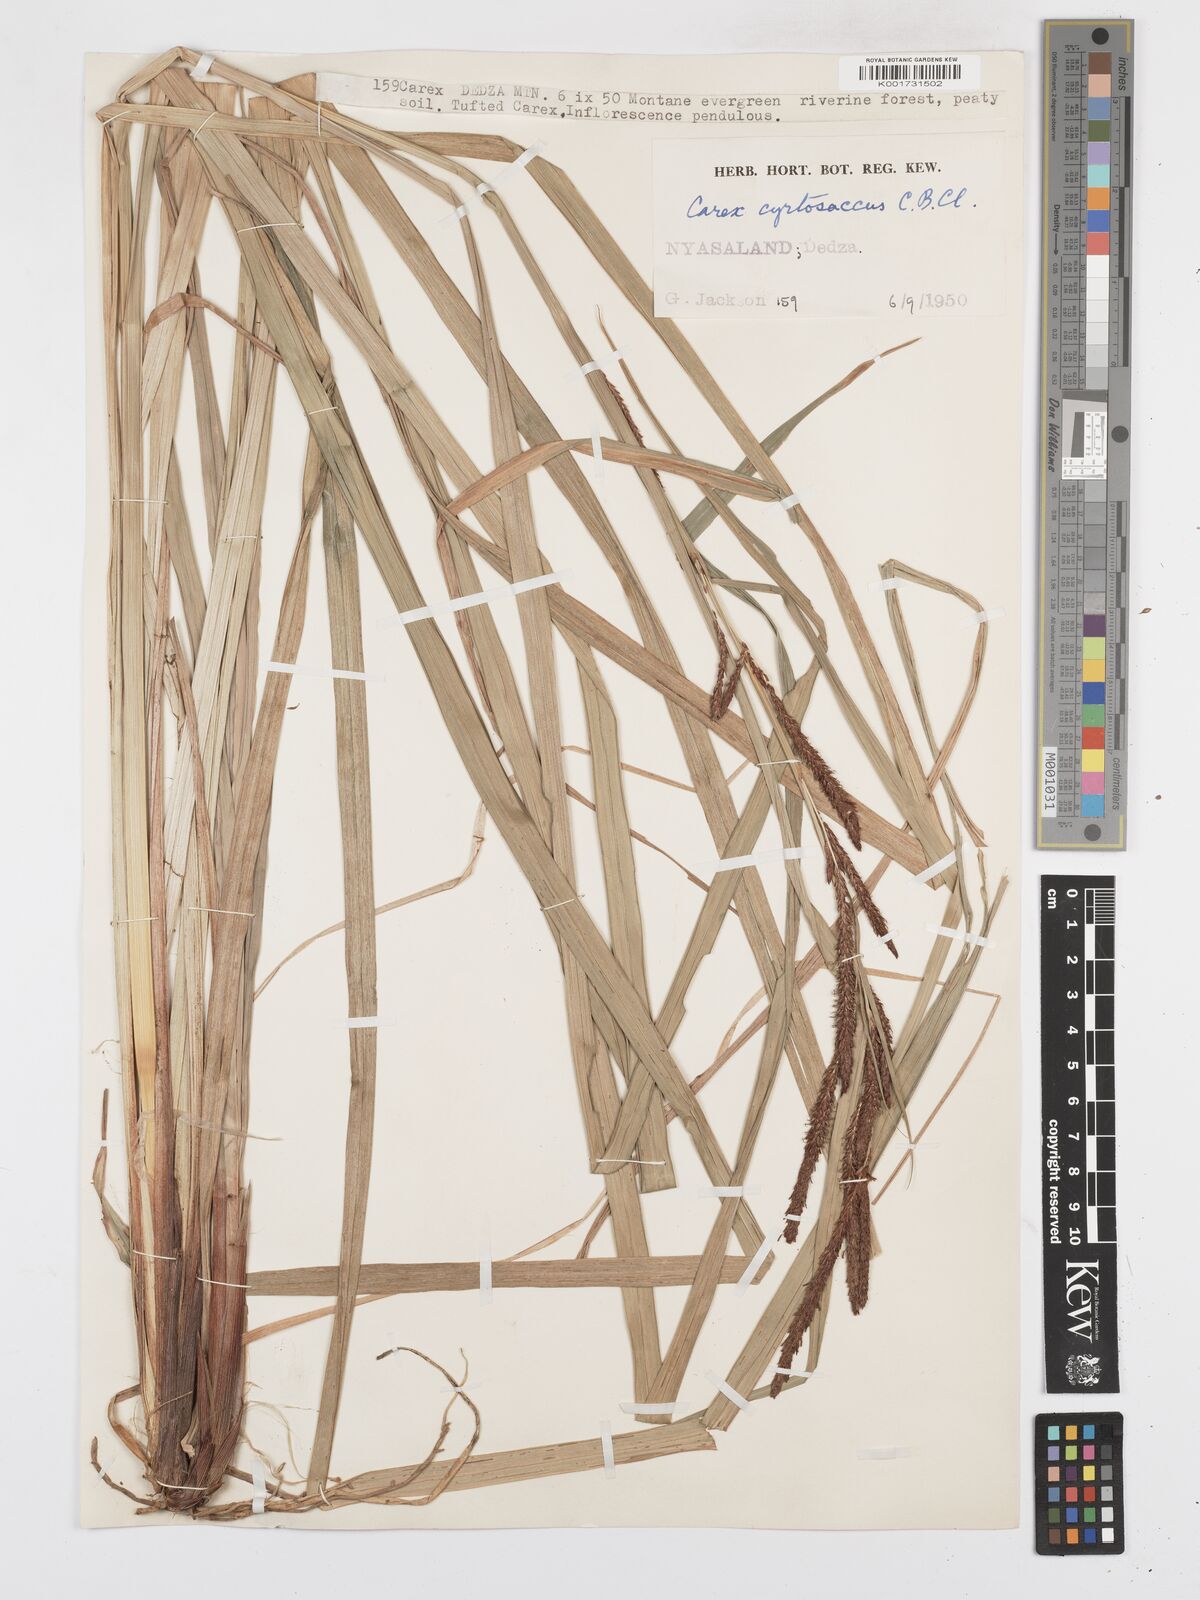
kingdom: Plantae
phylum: Tracheophyta
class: Liliopsida
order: Poales
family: Cyperaceae
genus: Carex
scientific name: Carex vallis-rosetto
